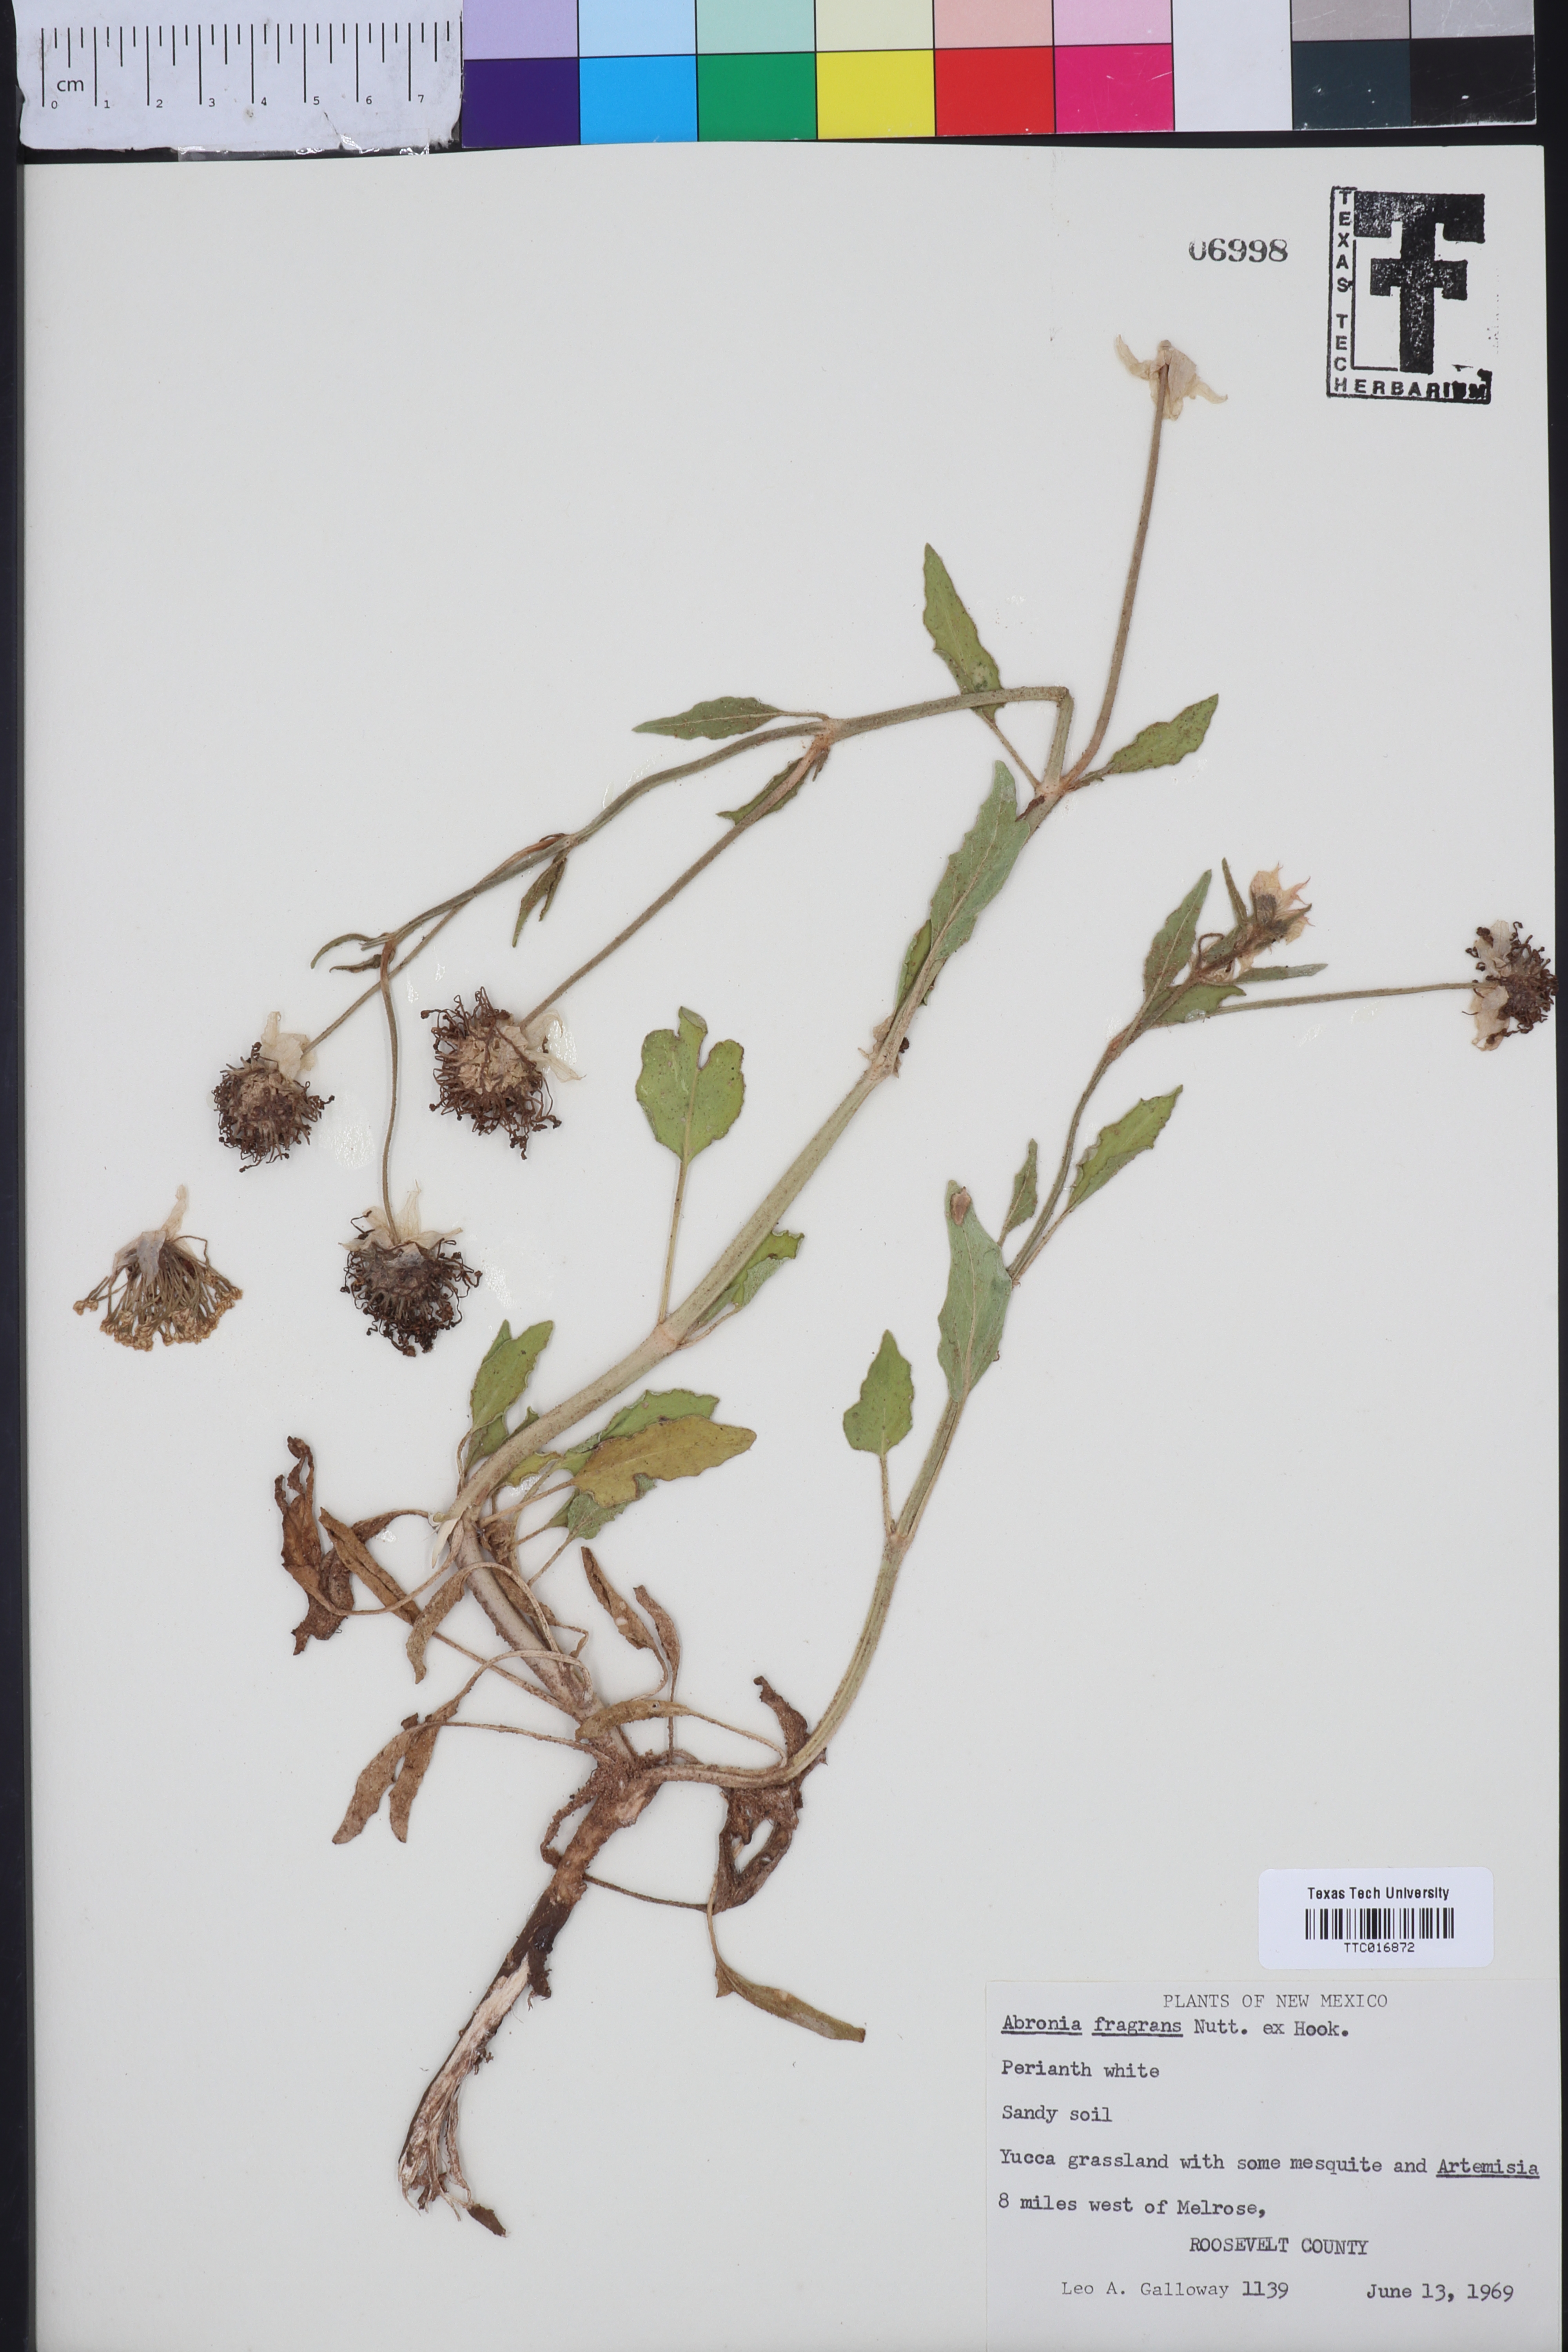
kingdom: Plantae
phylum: Tracheophyta
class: Magnoliopsida
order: Caryophyllales
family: Nyctaginaceae
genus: Abronia
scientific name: Abronia fragrans
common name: Fragrant sand-verbena
